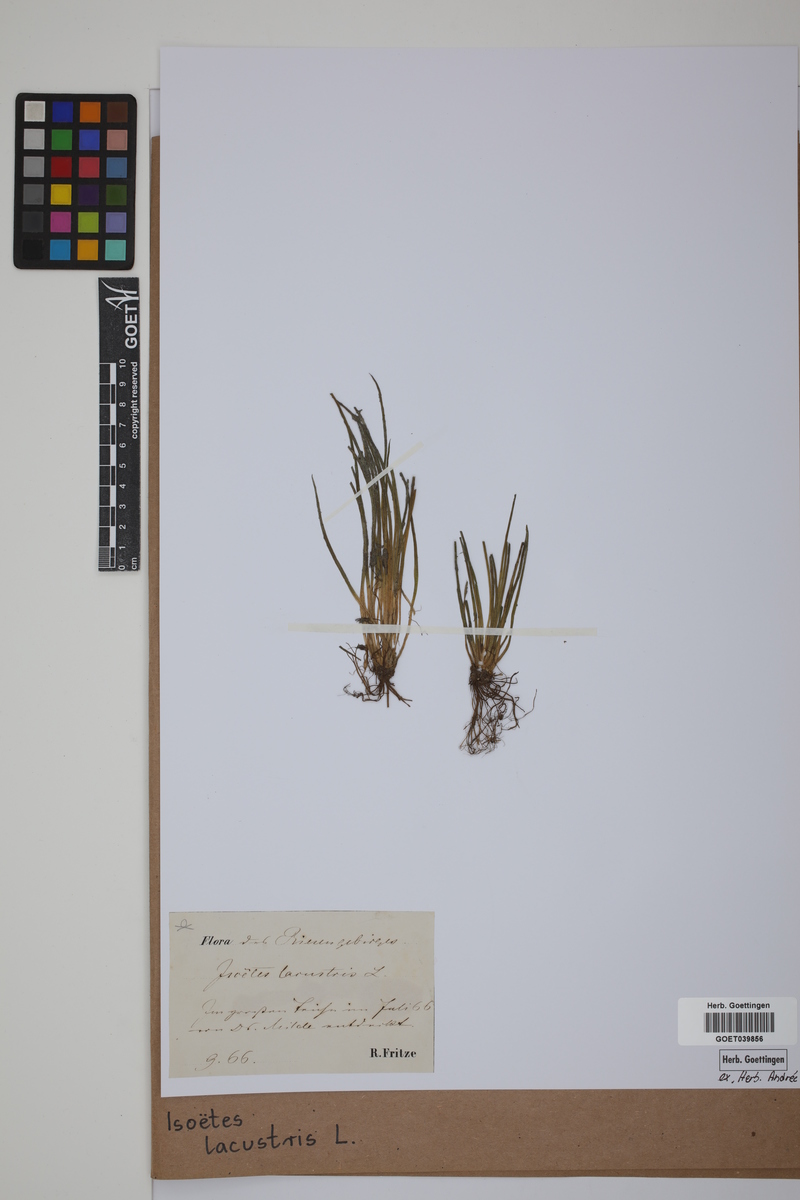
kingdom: Plantae
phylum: Tracheophyta
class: Lycopodiopsida
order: Isoetales
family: Isoetaceae
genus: Isoetes
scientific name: Isoetes lacustris
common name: Common quillwort
